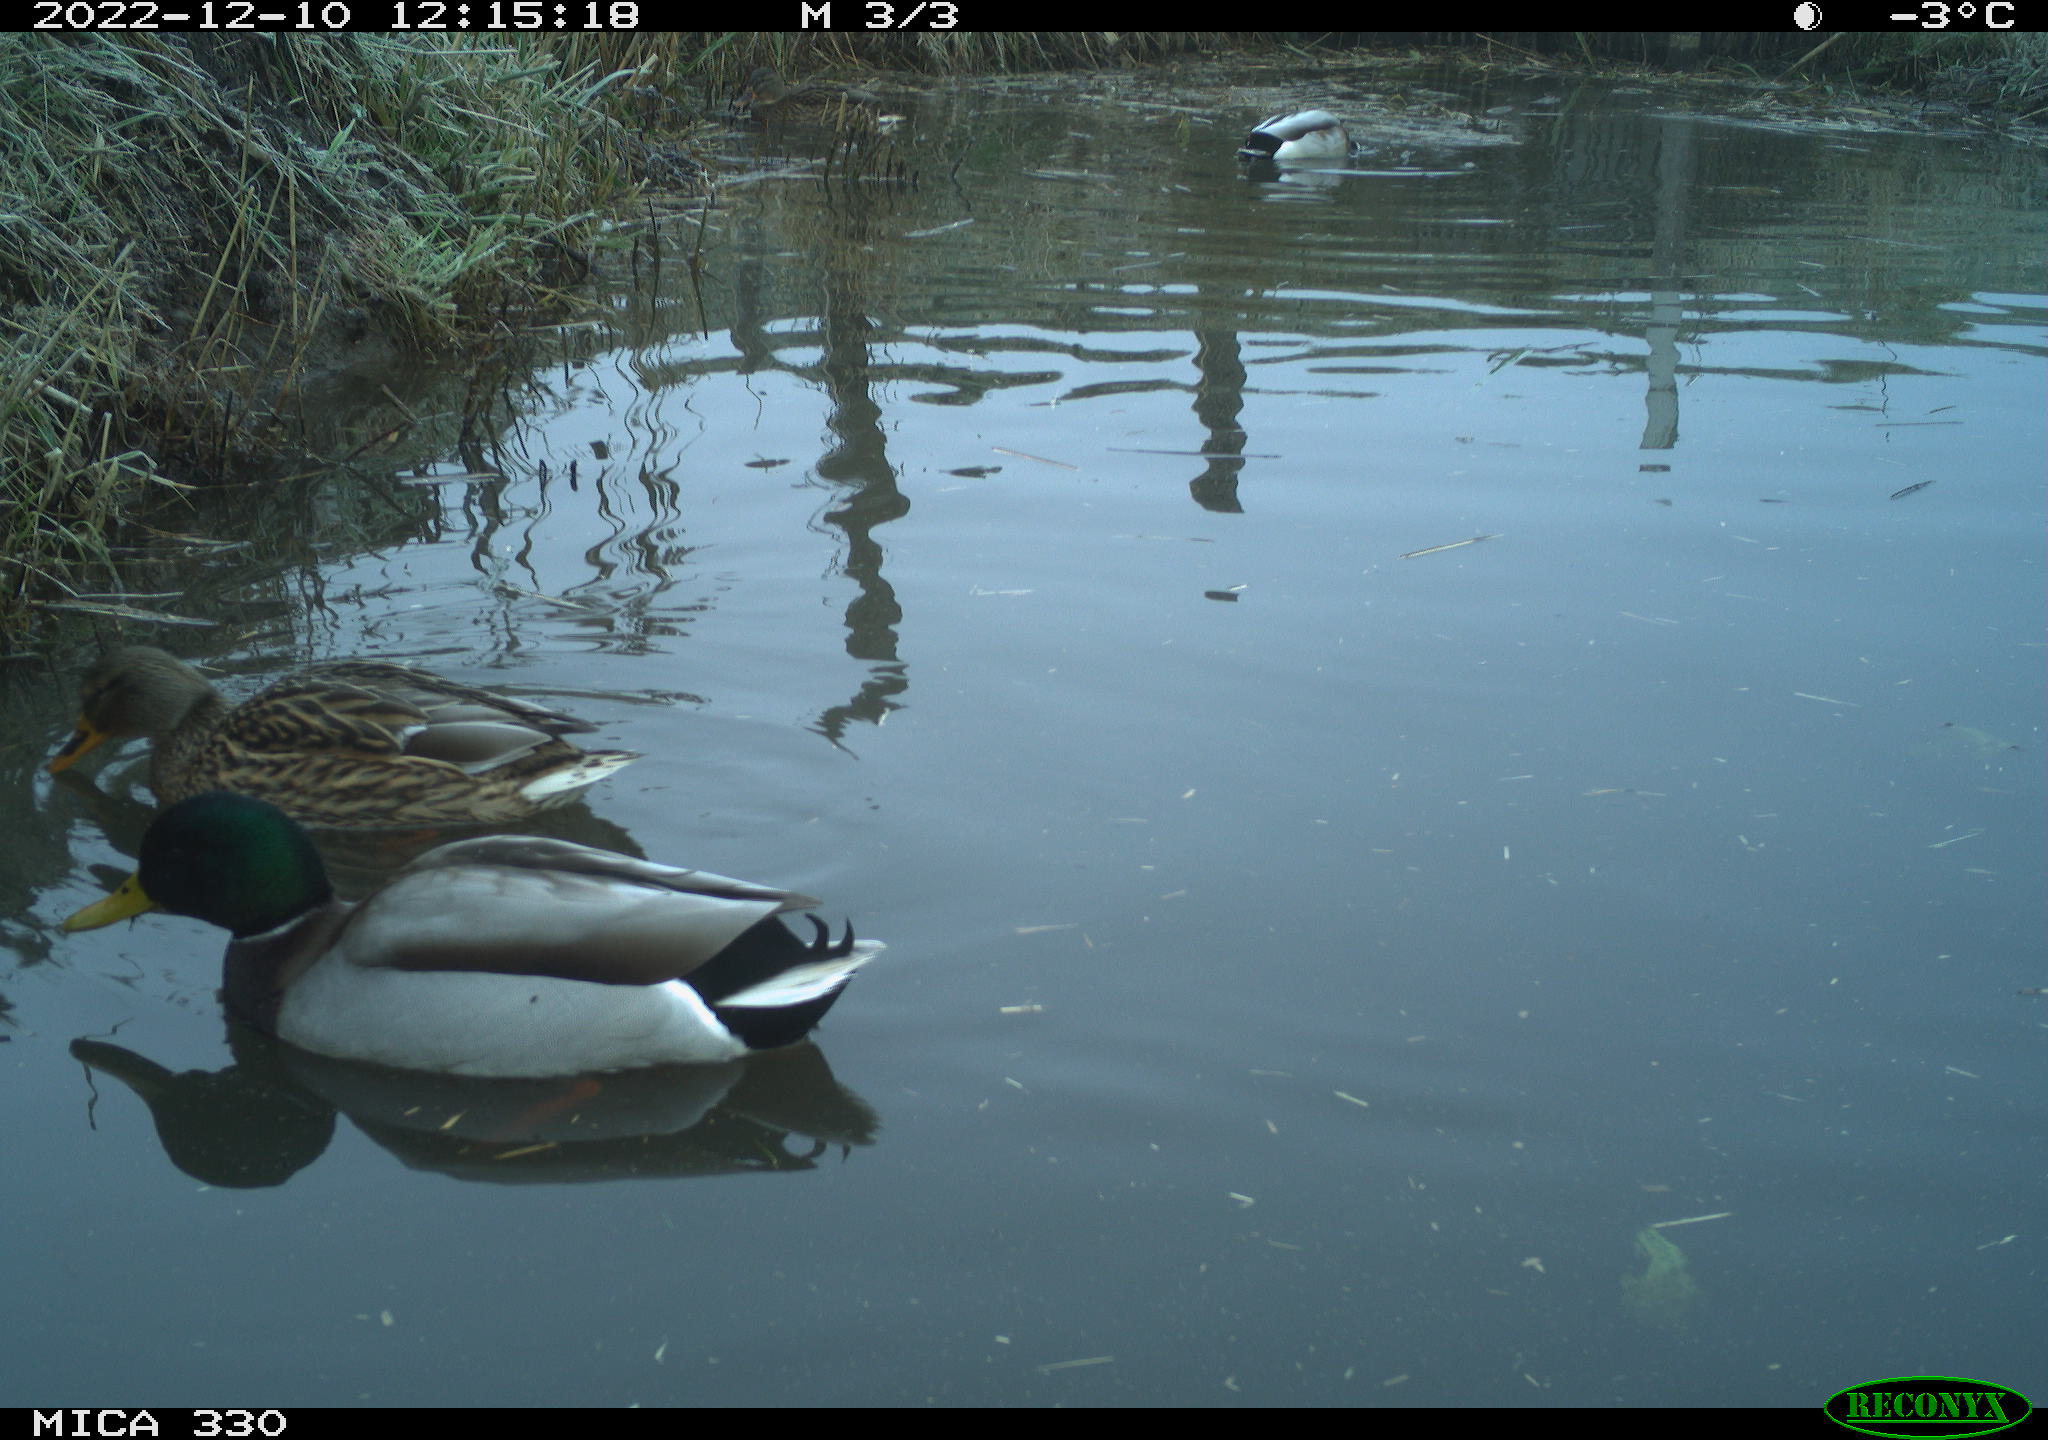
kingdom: Animalia
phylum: Chordata
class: Aves
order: Anseriformes
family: Anatidae
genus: Anas
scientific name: Anas
